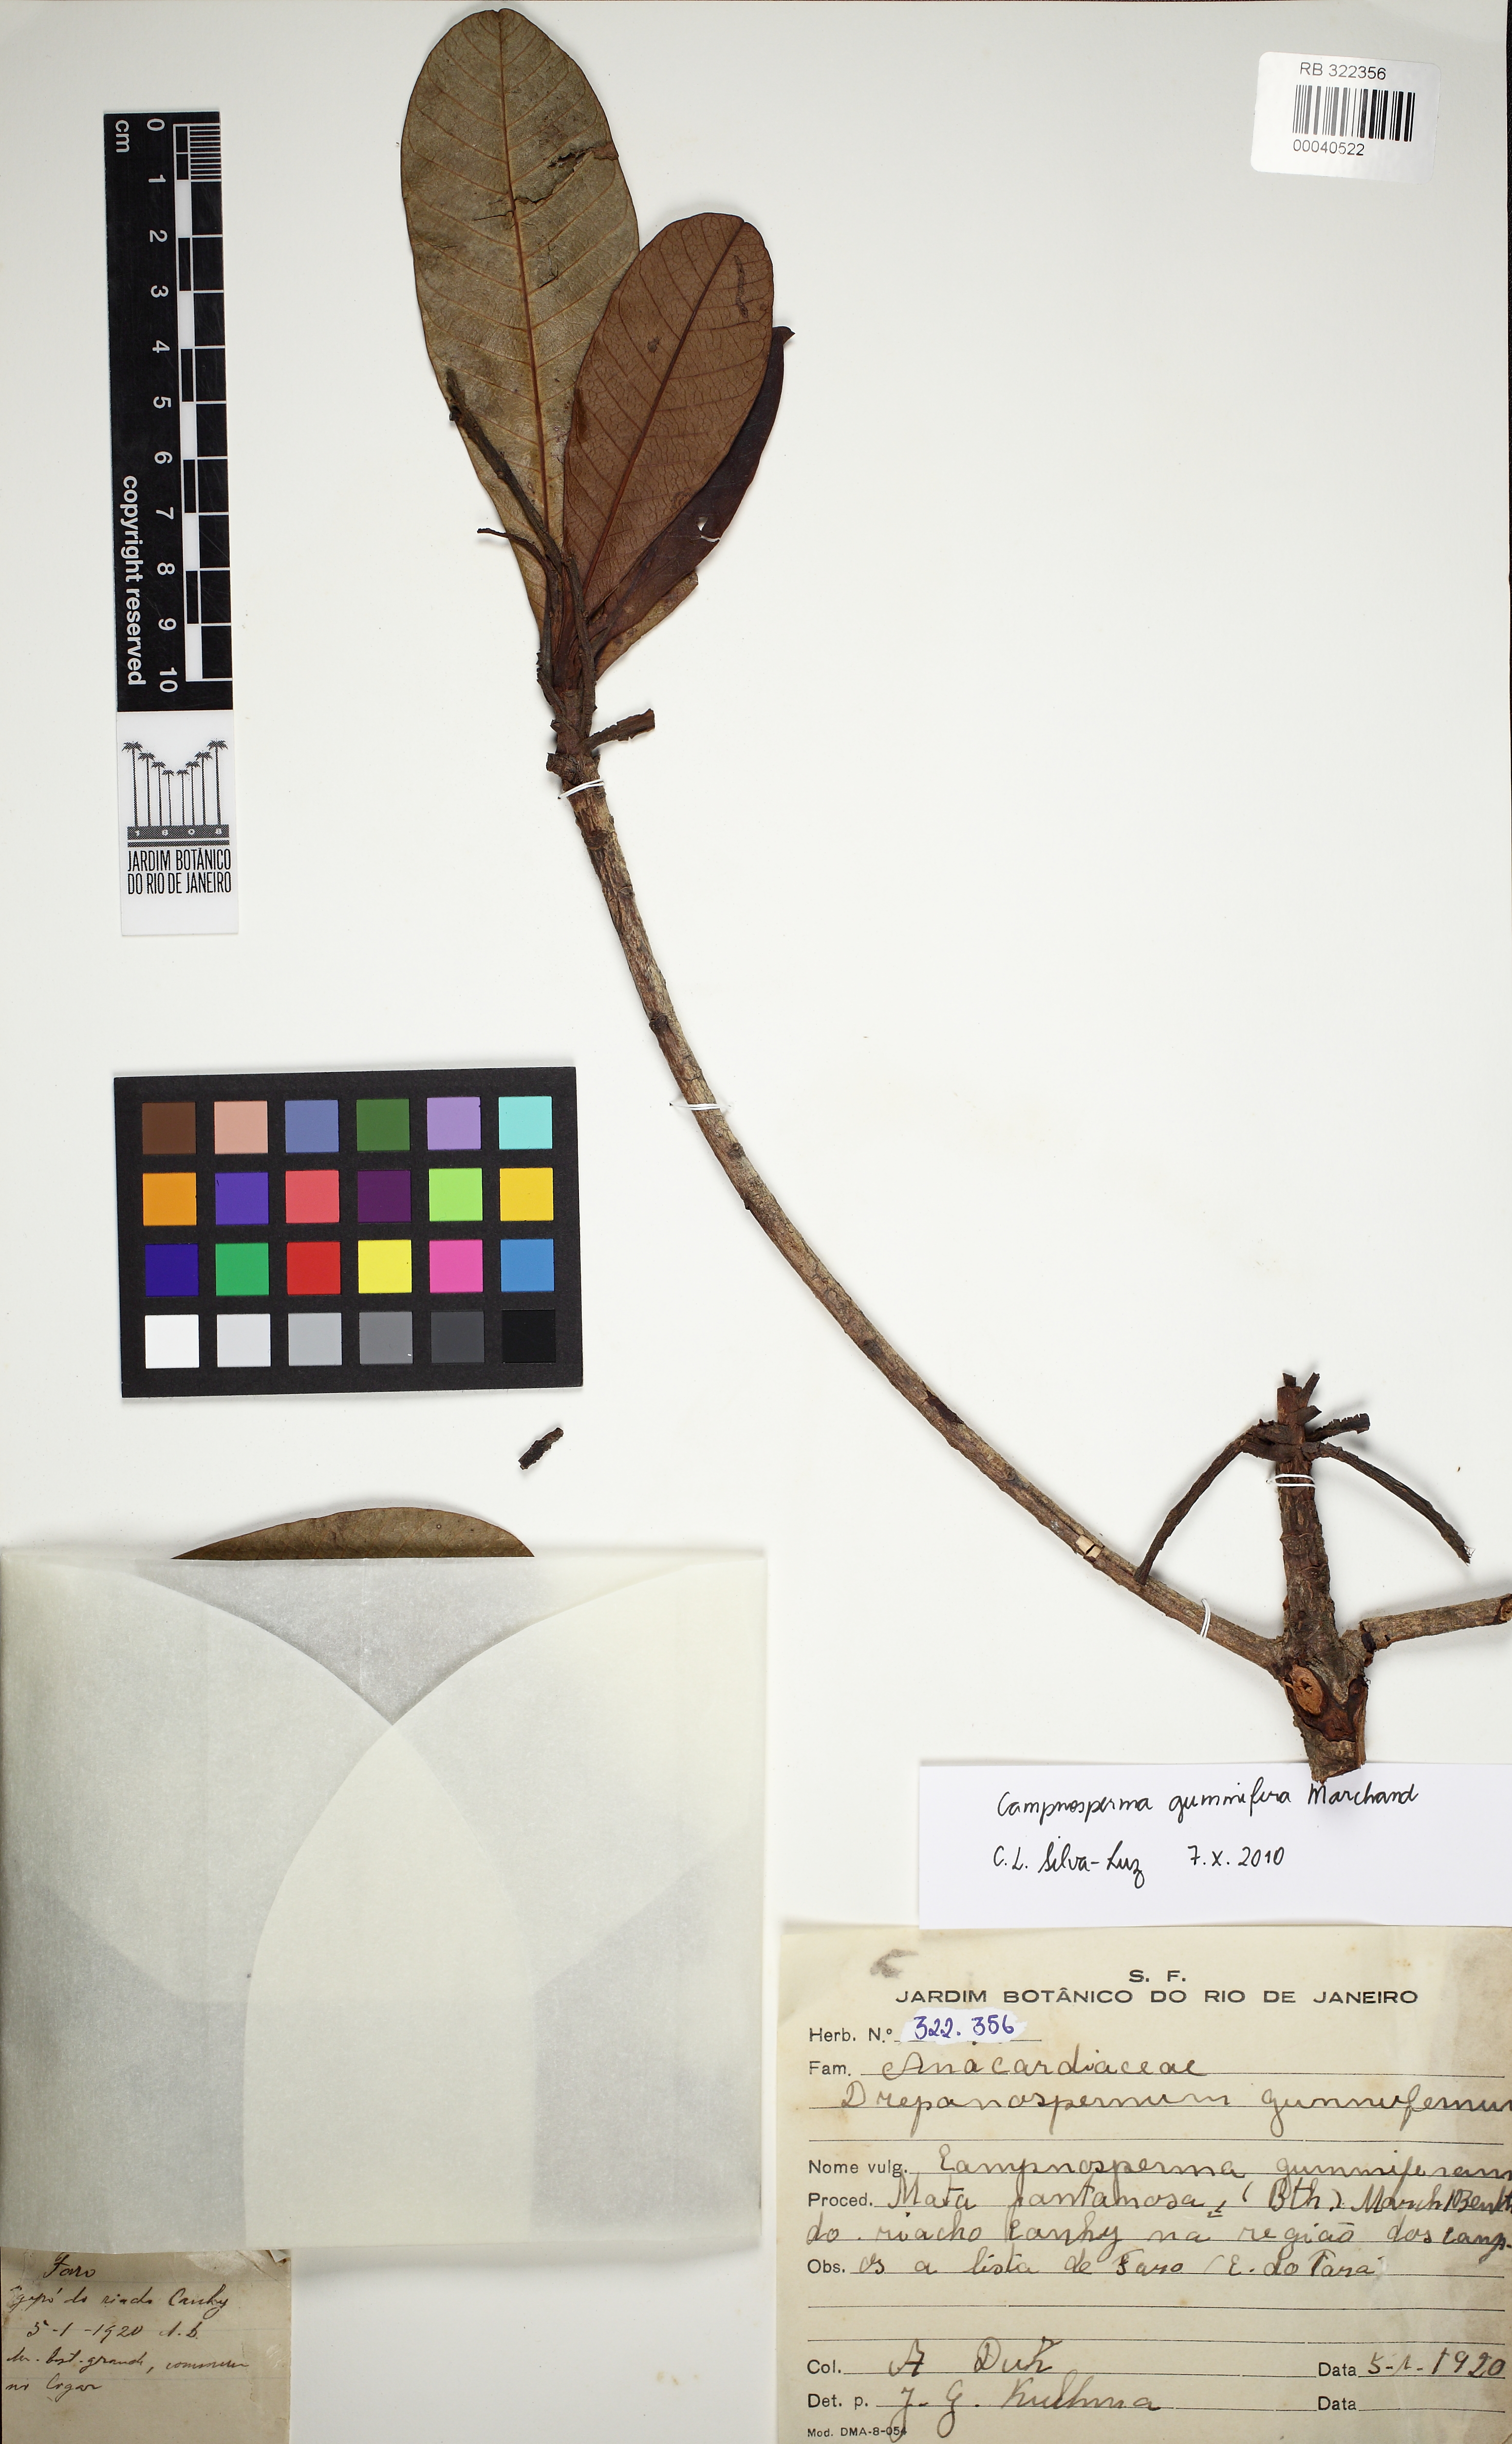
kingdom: Plantae
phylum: Tracheophyta
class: Magnoliopsida
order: Sapindales
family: Anacardiaceae
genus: Campnosperma
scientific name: Campnosperma gummifera
